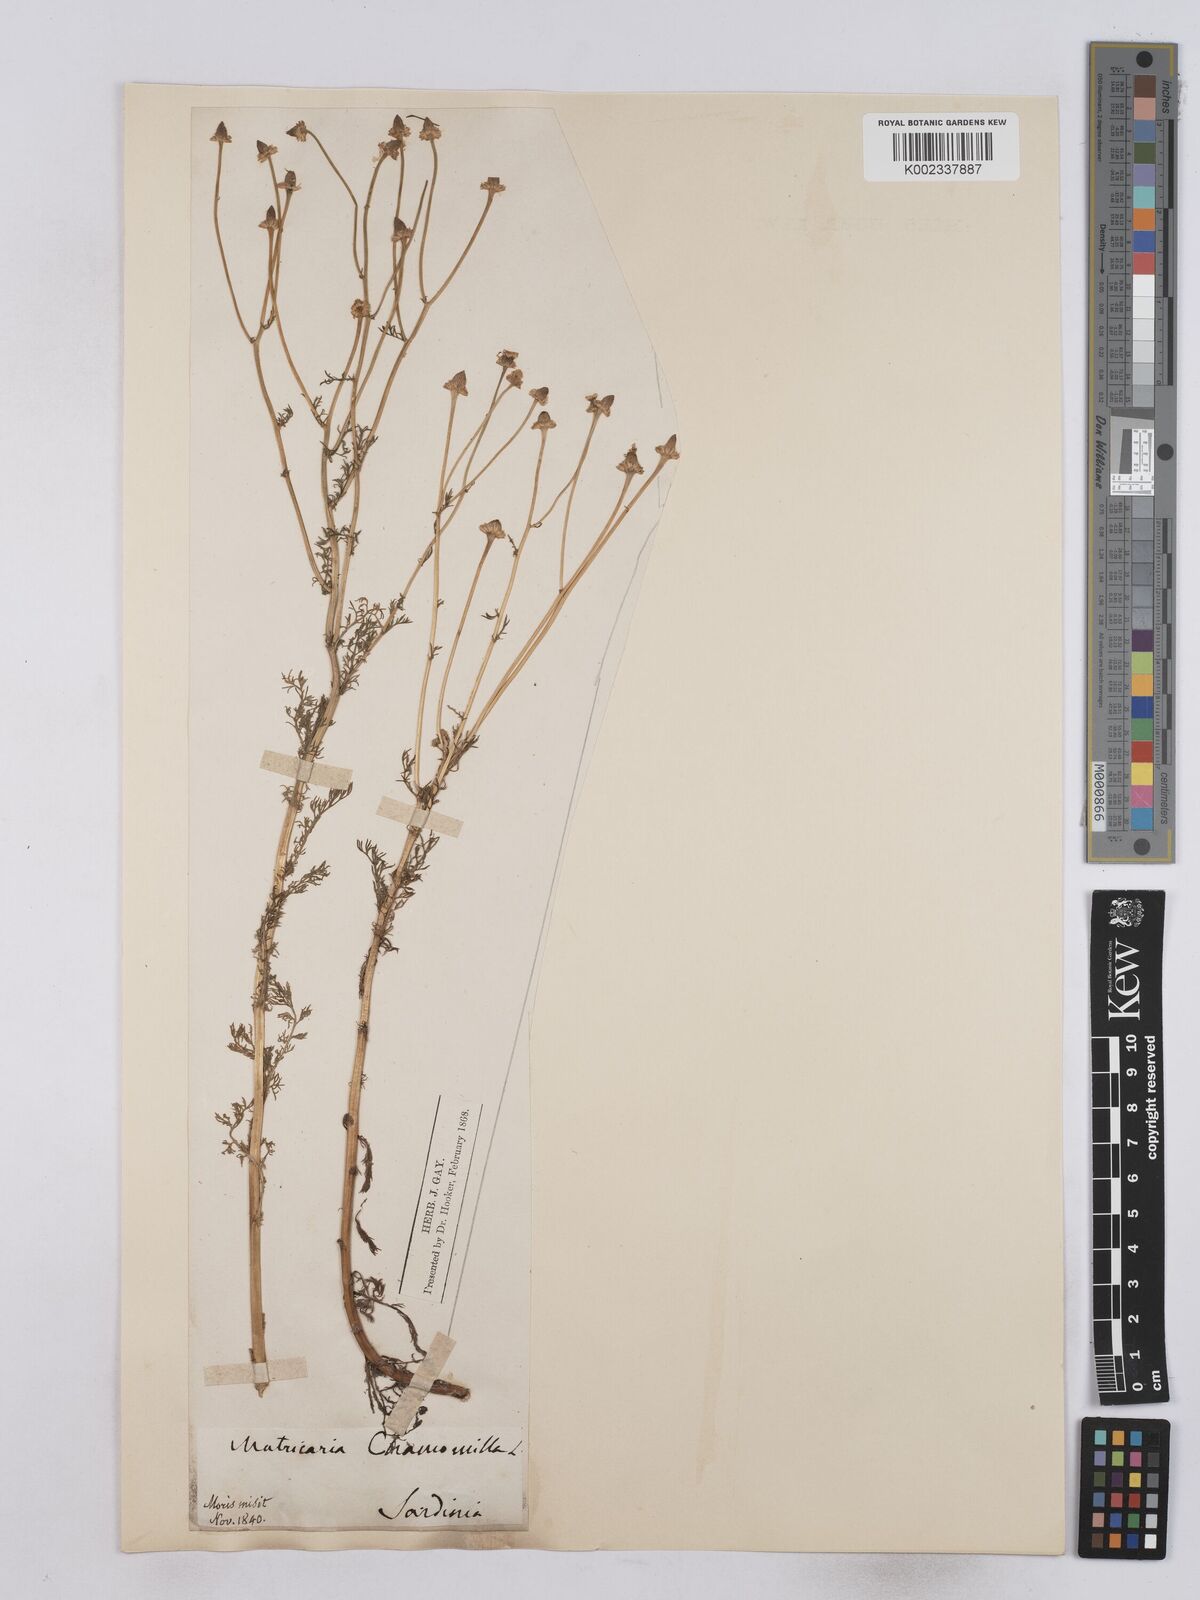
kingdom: Plantae
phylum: Tracheophyta
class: Magnoliopsida
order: Asterales
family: Asteraceae
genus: Matricaria
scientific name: Matricaria chamomilla
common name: Scented mayweed
